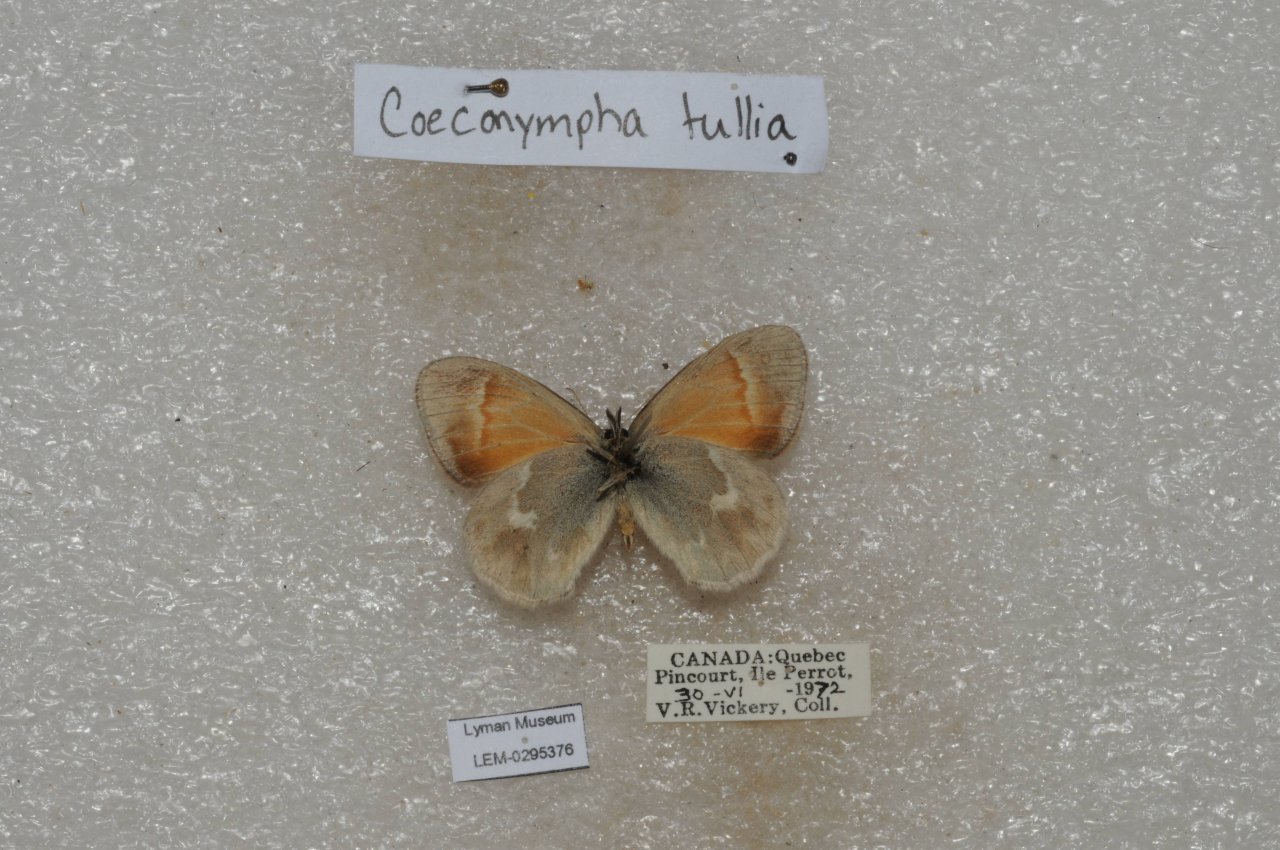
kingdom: Animalia
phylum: Arthropoda
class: Insecta
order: Lepidoptera
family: Nymphalidae
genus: Coenonympha
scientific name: Coenonympha tullia
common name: Large Heath
